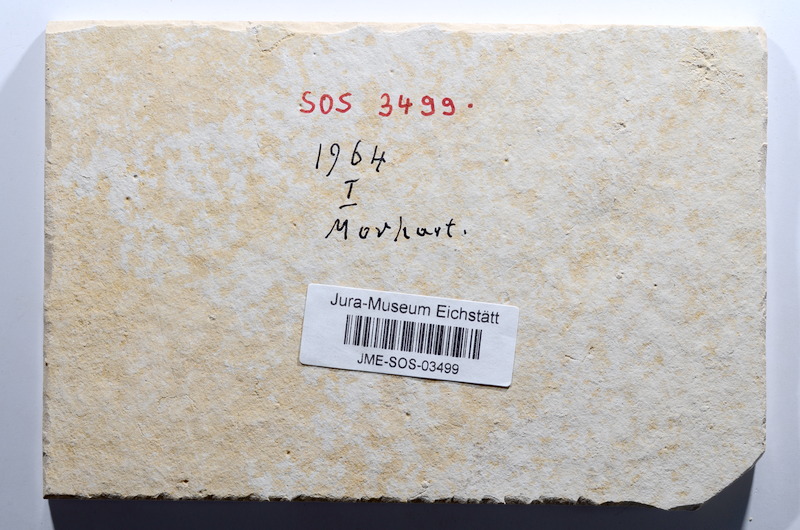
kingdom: Animalia
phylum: Chordata
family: Ascalaboidae
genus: Tharsis
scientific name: Tharsis dubius
